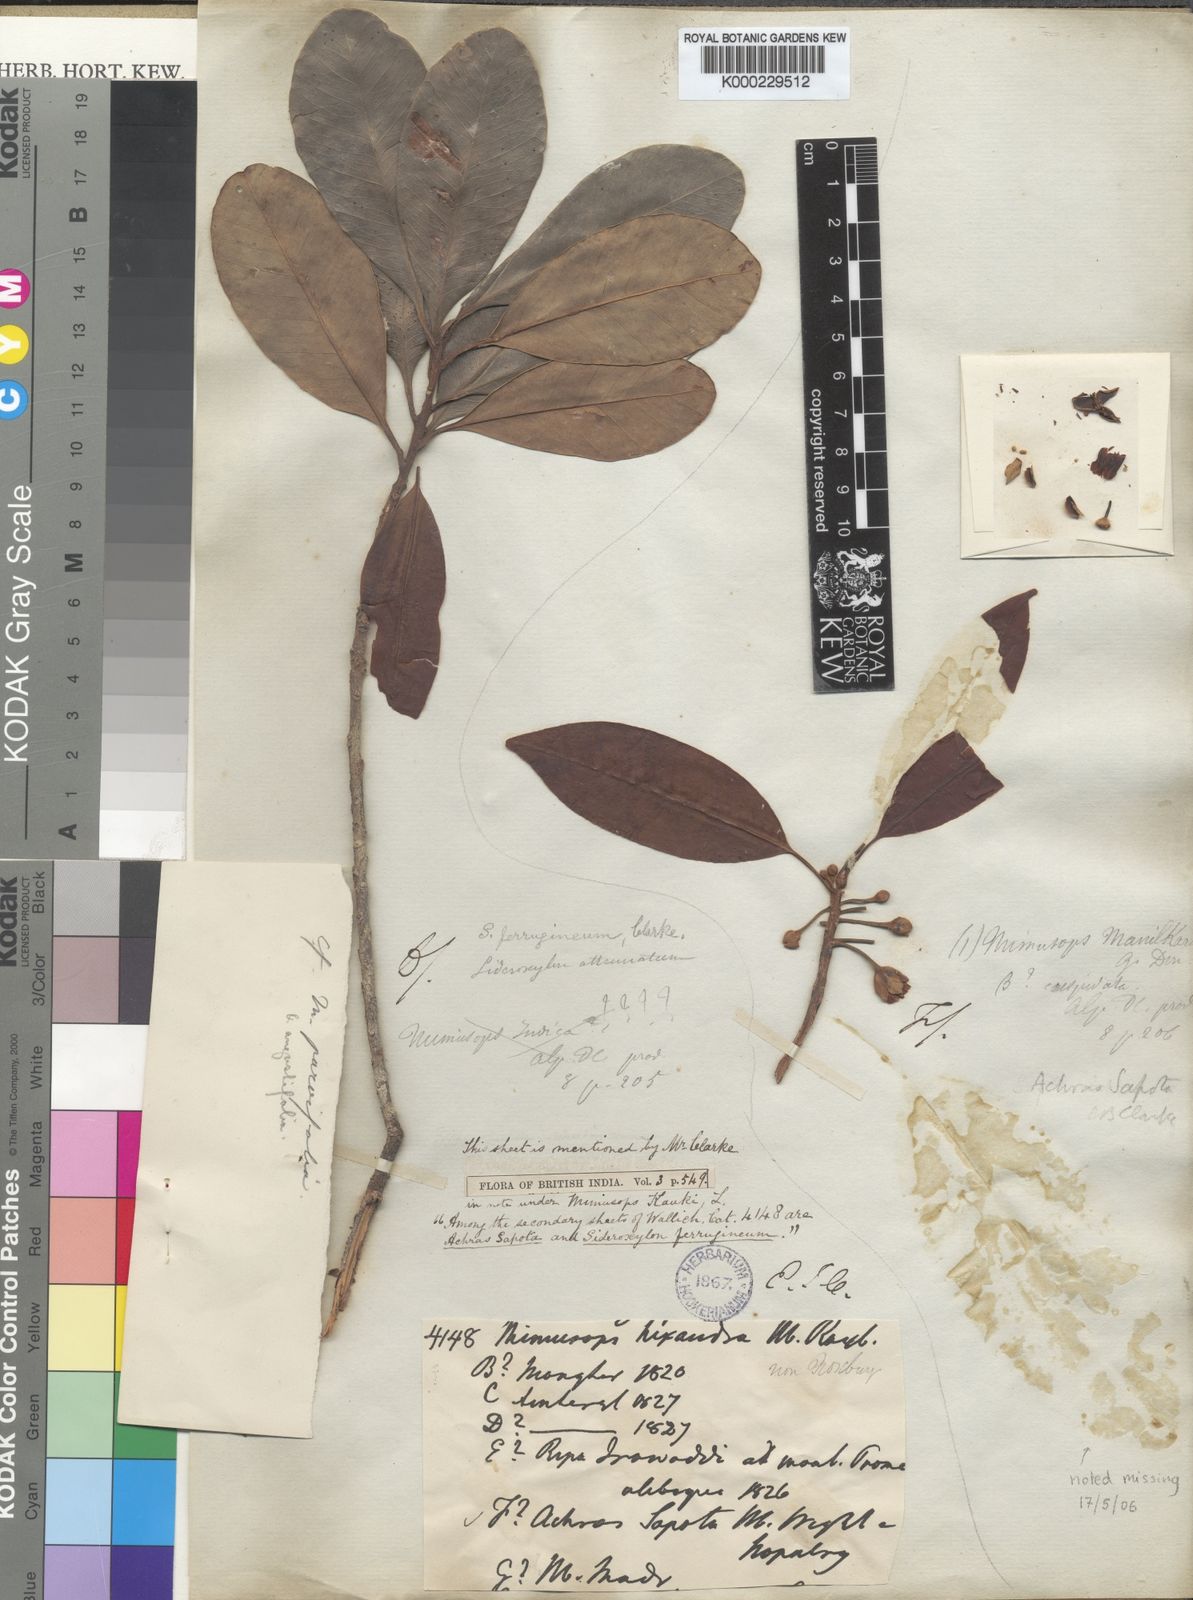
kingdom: Plantae
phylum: Tracheophyta
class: Magnoliopsida
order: Ericales
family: Sapotaceae
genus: Manilkara
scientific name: Manilkara hexandra
